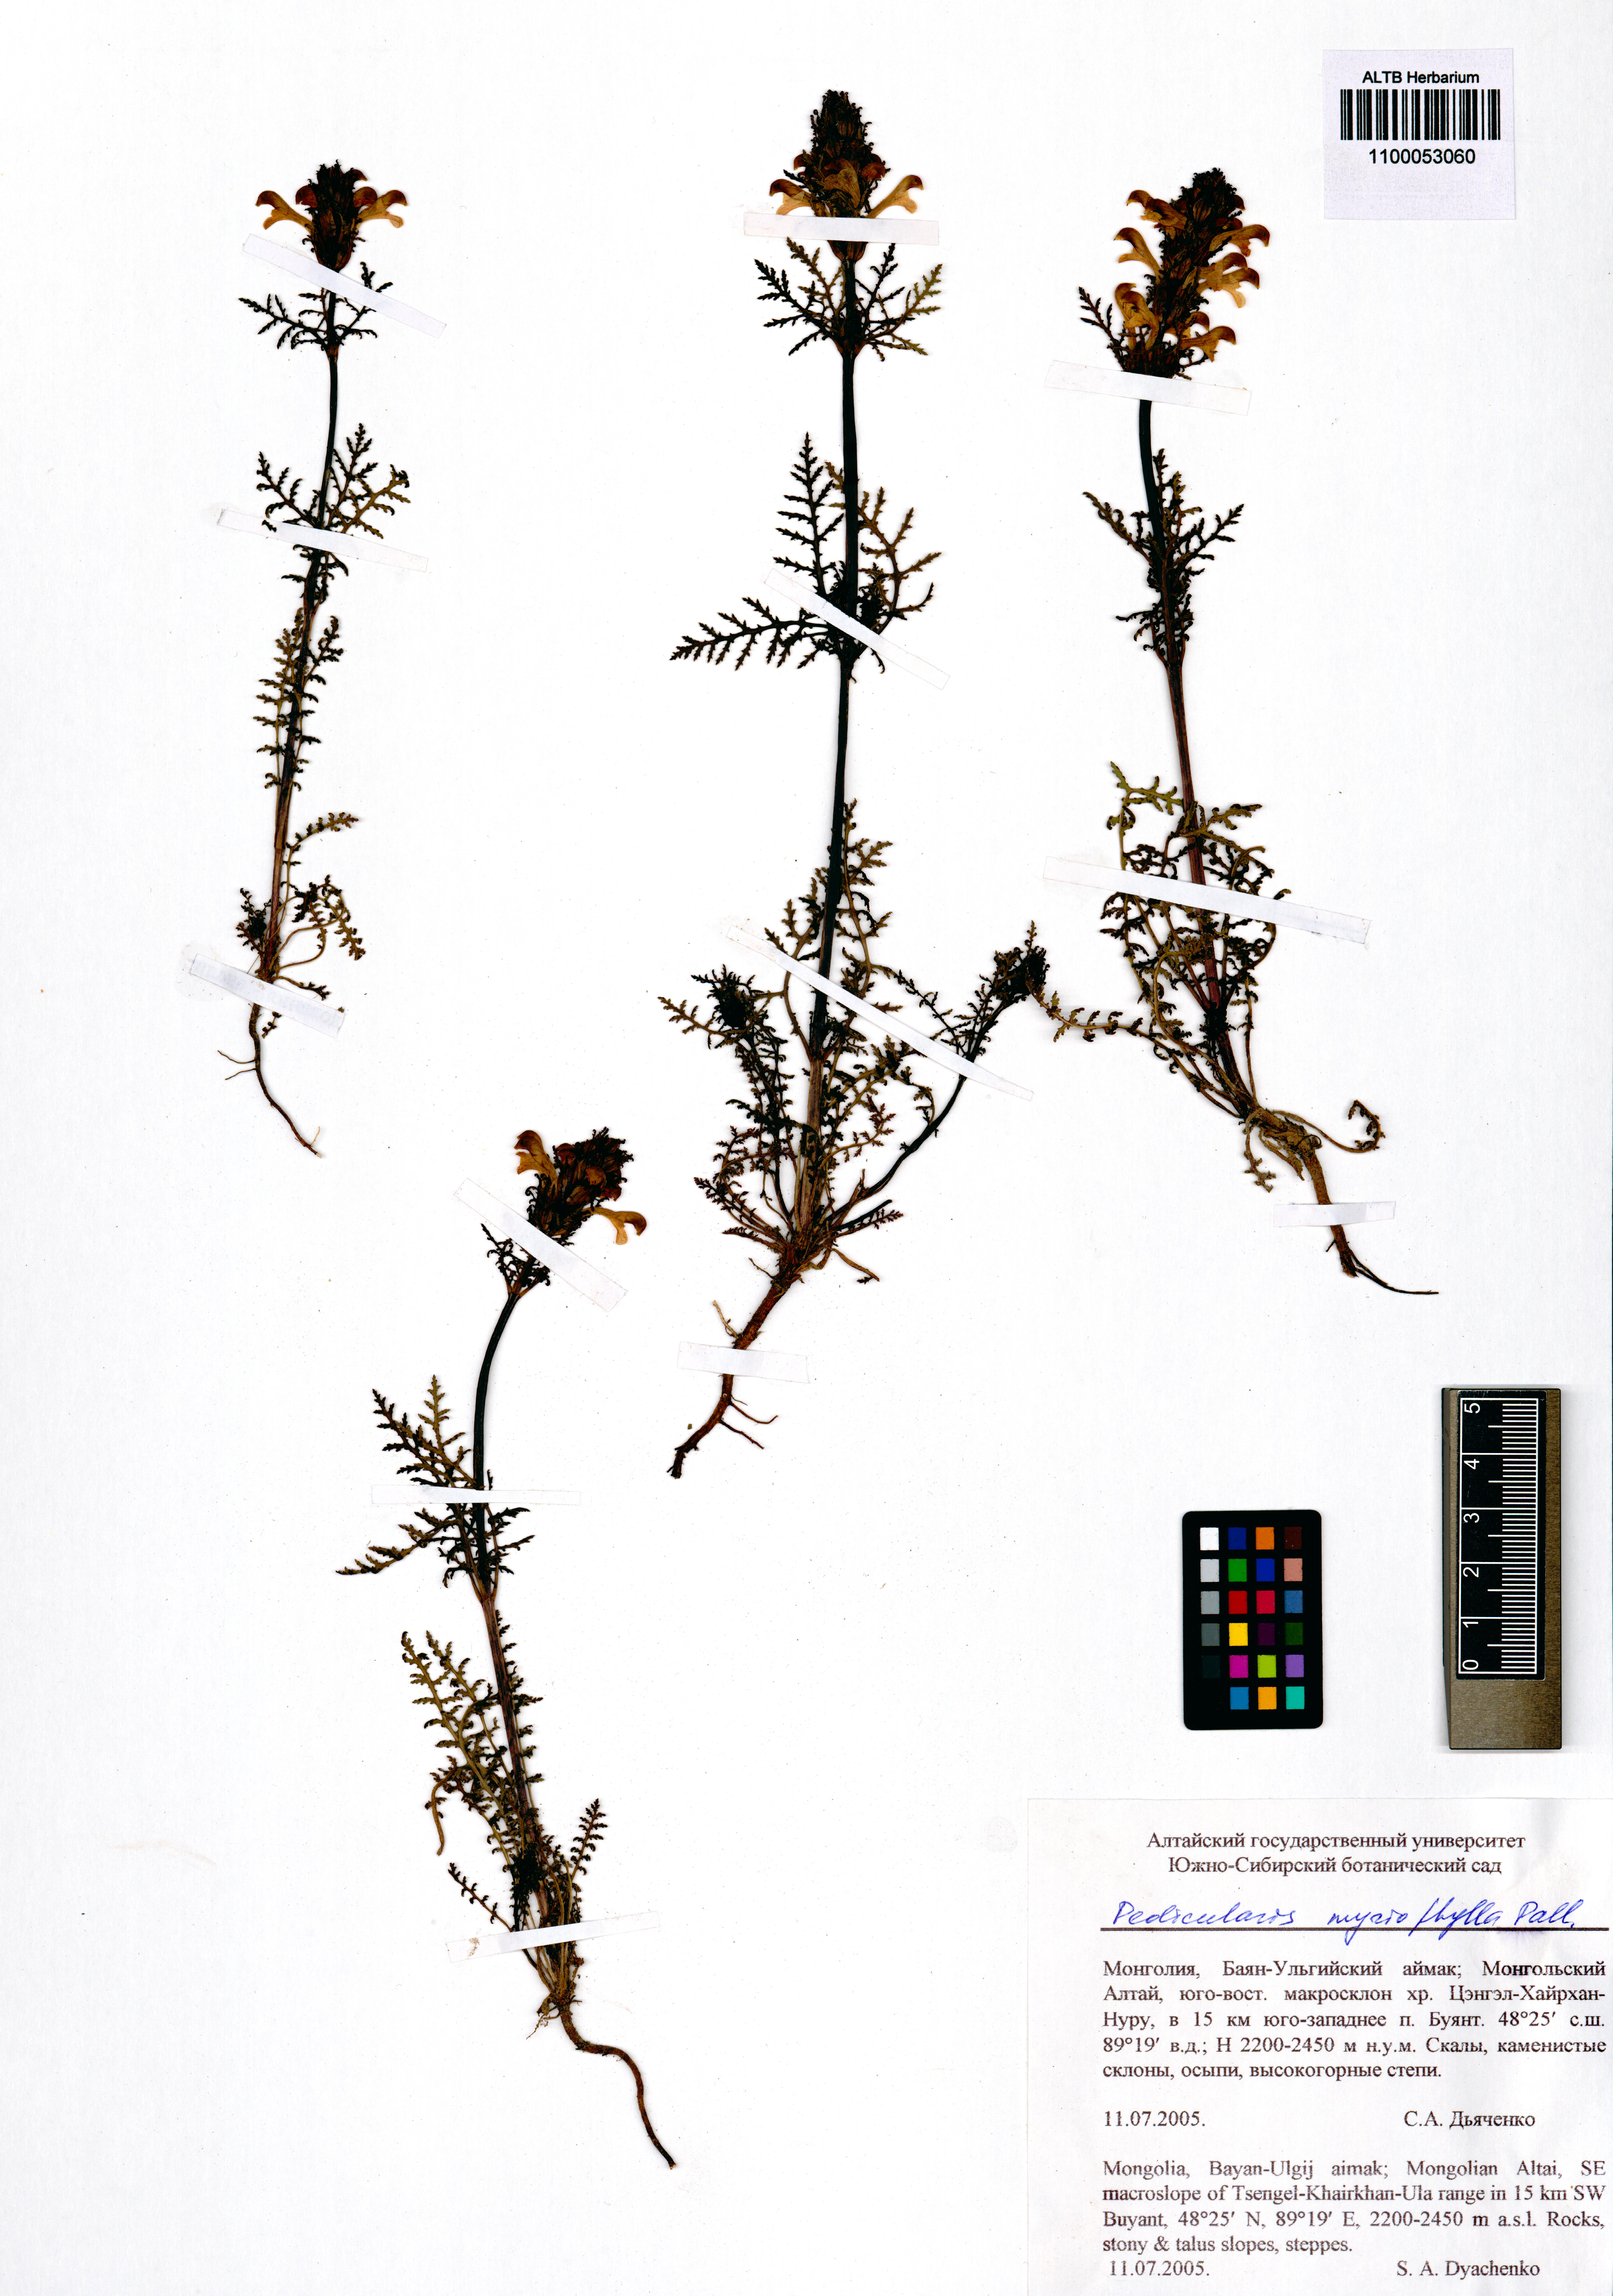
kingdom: Plantae
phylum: Tracheophyta
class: Magnoliopsida
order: Lamiales
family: Orobanchaceae
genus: Pedicularis
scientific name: Pedicularis myriophylla
